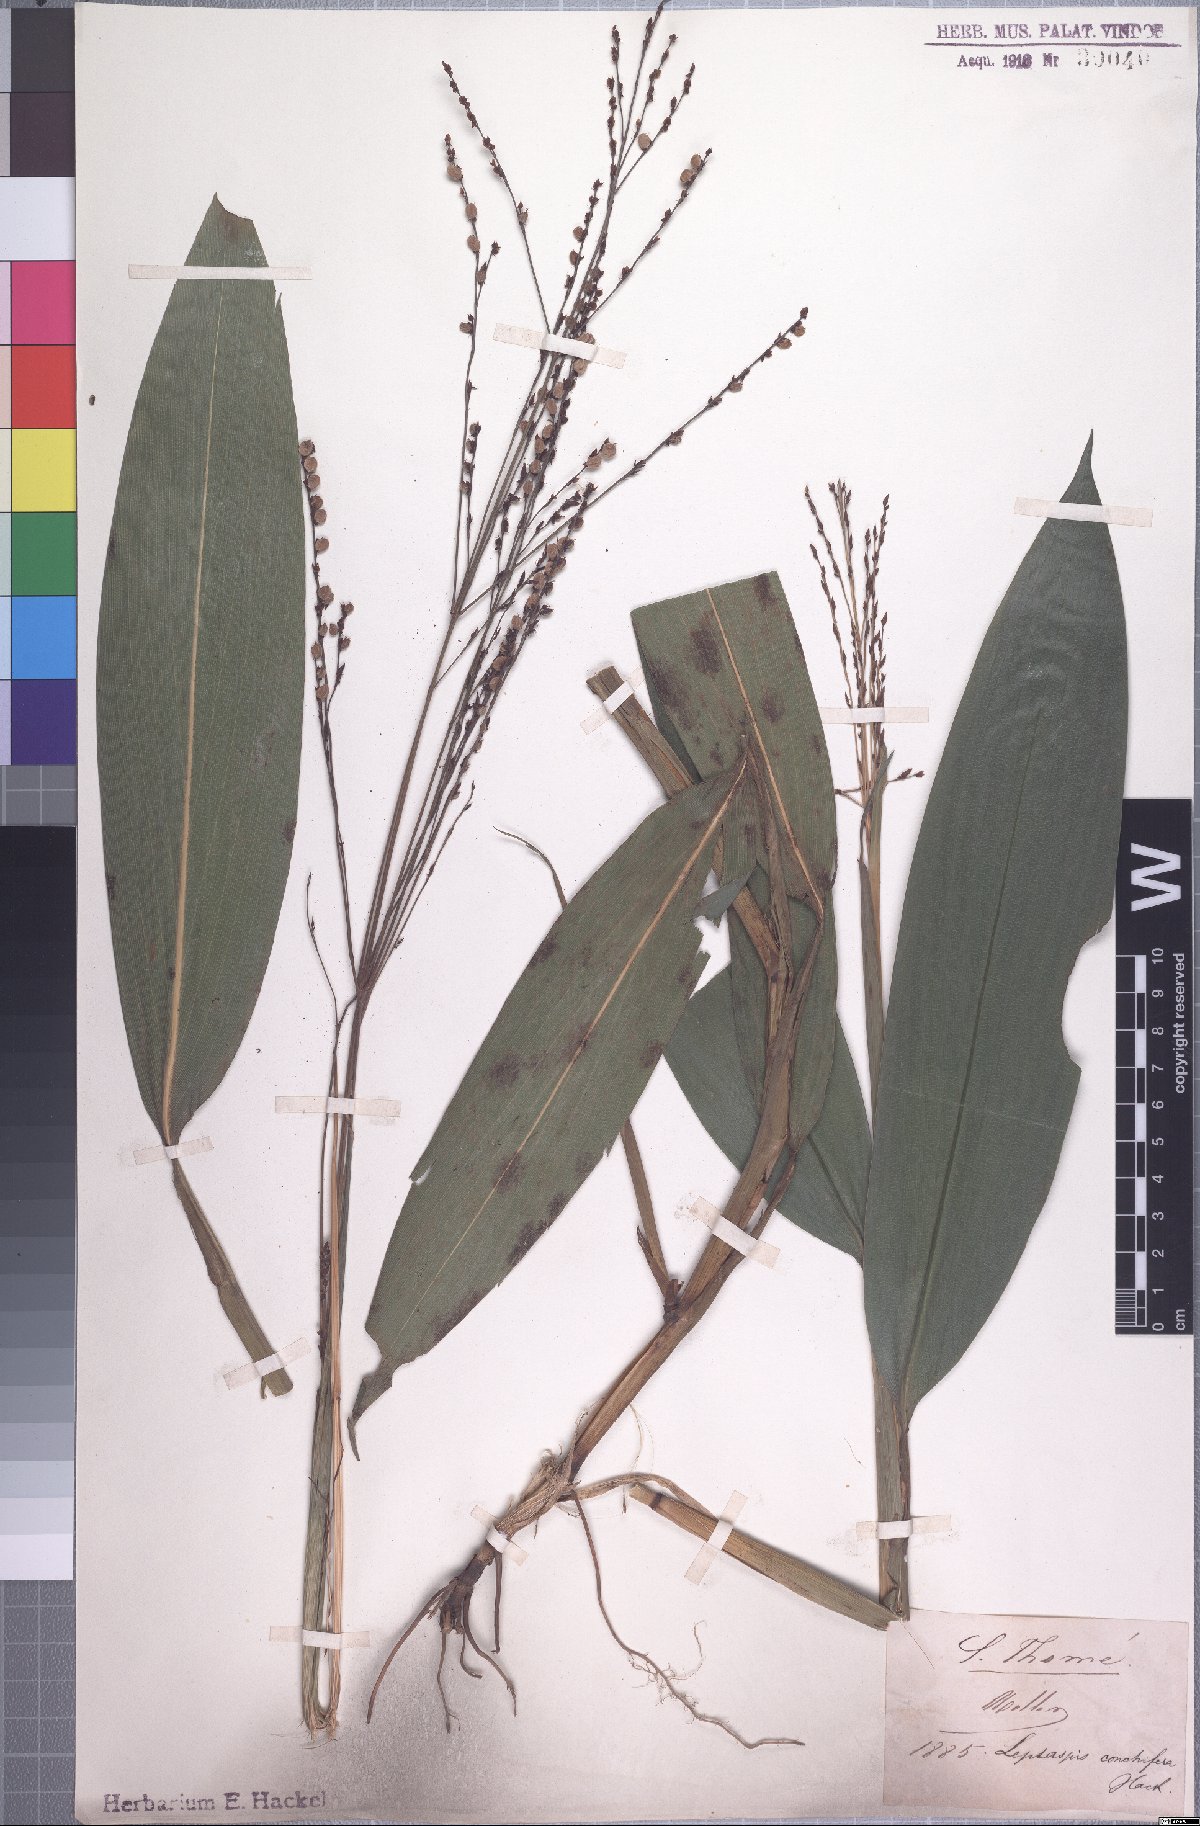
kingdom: Plantae
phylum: Tracheophyta
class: Liliopsida
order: Poales
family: Poaceae
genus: Leptaspis
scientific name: Leptaspis zeylanica
